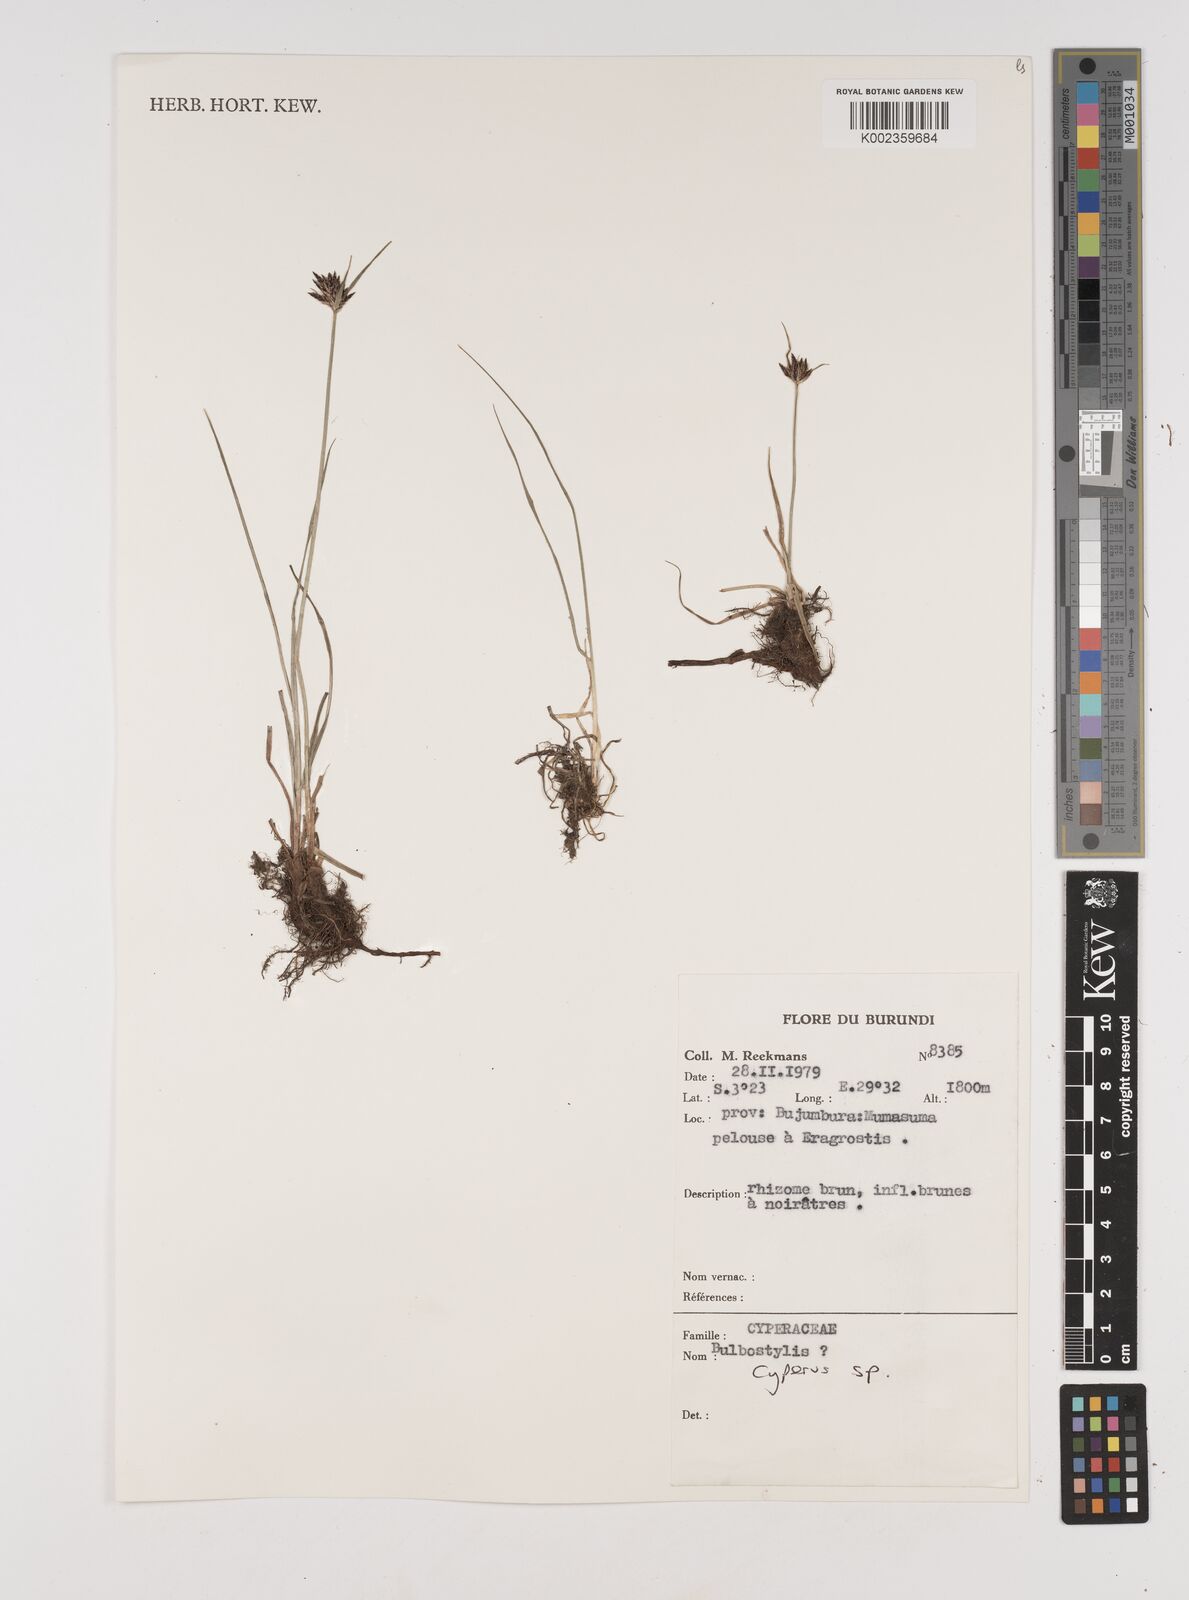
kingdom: Plantae
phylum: Tracheophyta
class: Liliopsida
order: Poales
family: Cyperaceae
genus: Cyperus
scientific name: Cyperus
